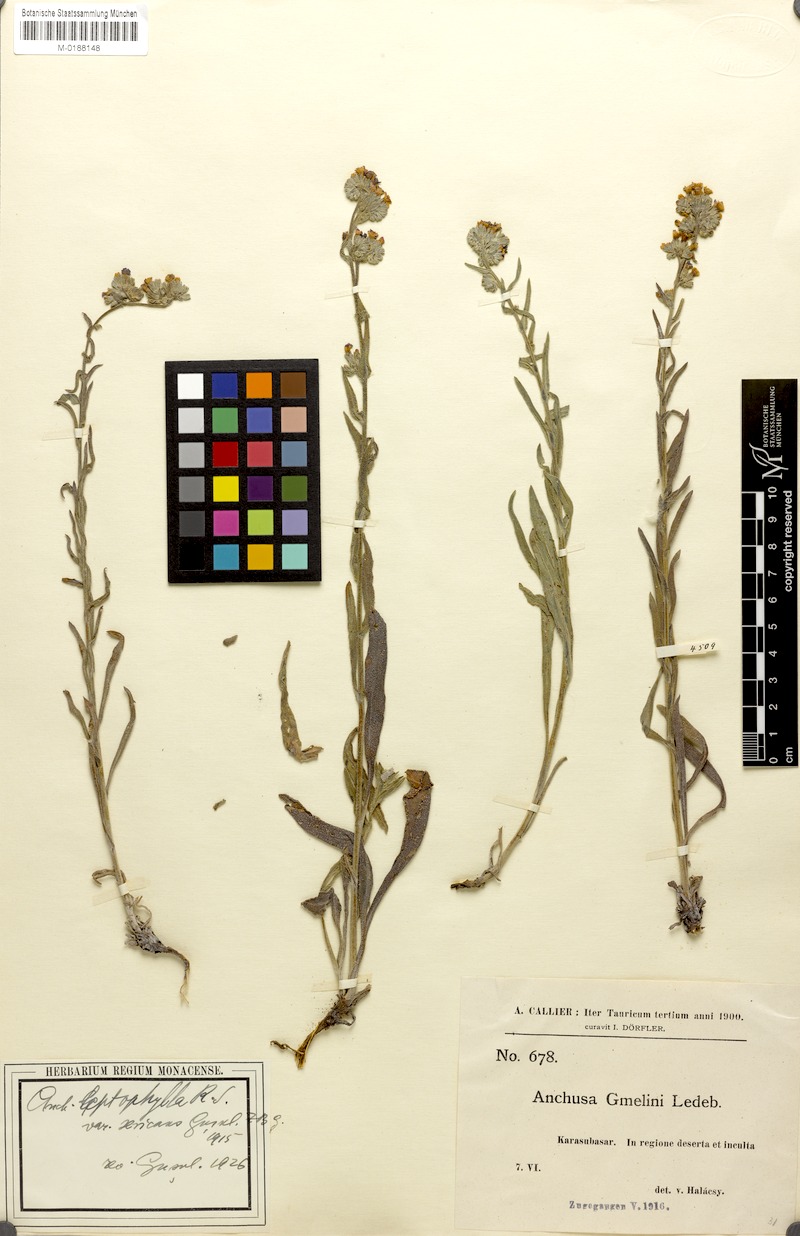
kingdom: Plantae
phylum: Tracheophyta
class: Magnoliopsida
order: Boraginales
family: Boraginaceae
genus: Anchusa
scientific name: Anchusa leptophylla
